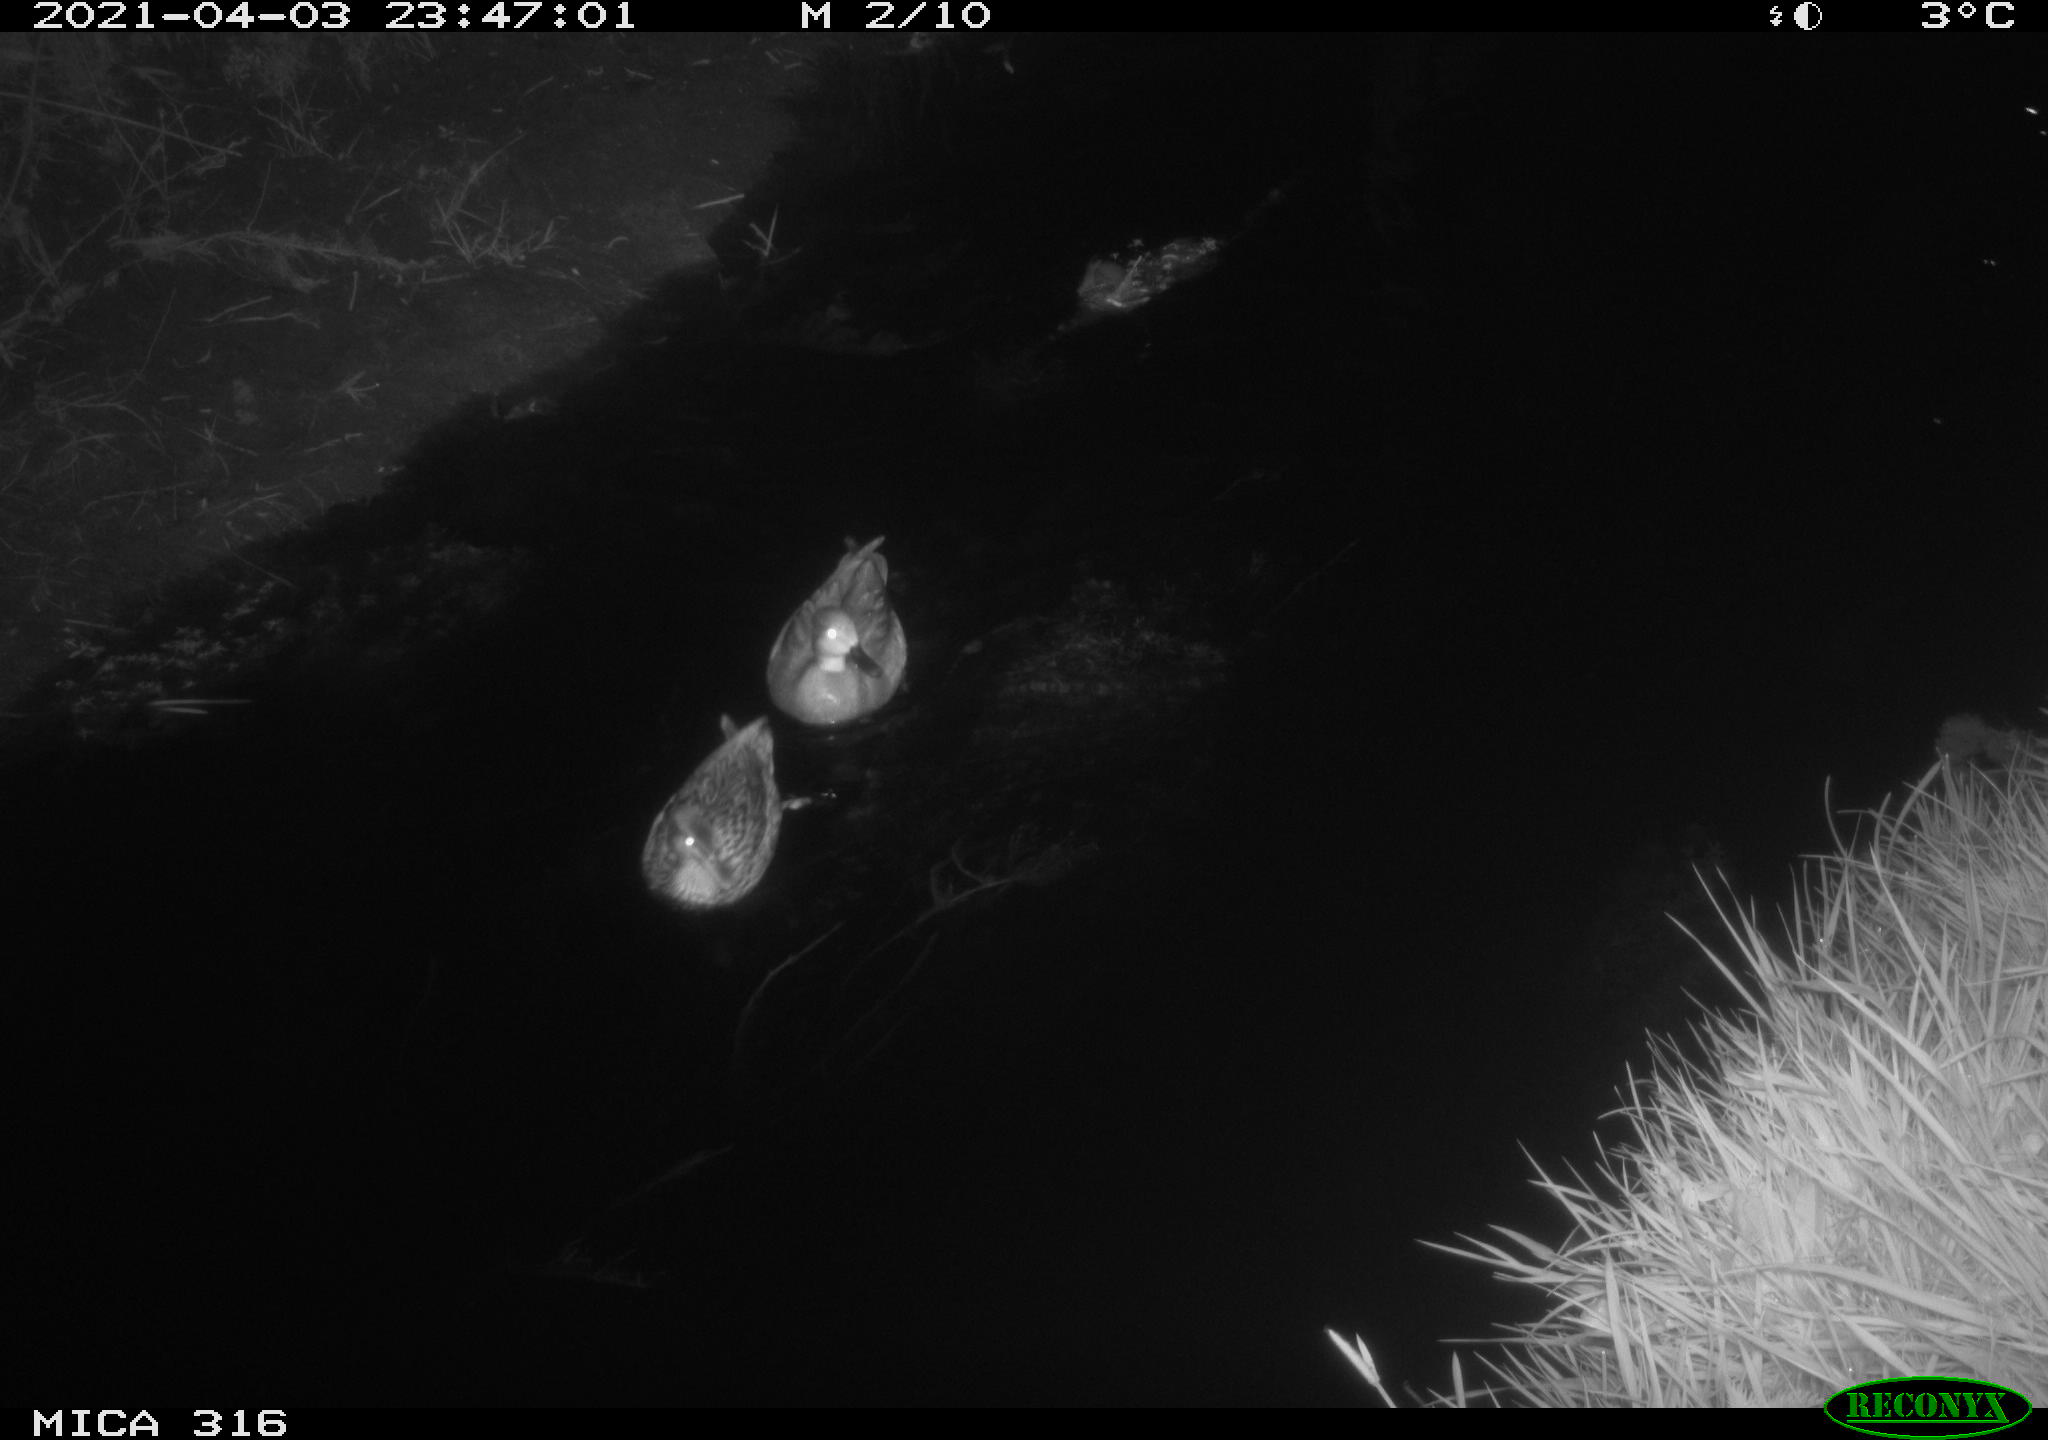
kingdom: Animalia
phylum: Chordata
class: Aves
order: Anseriformes
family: Anatidae
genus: Anas
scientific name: Anas platyrhynchos
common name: Mallard
